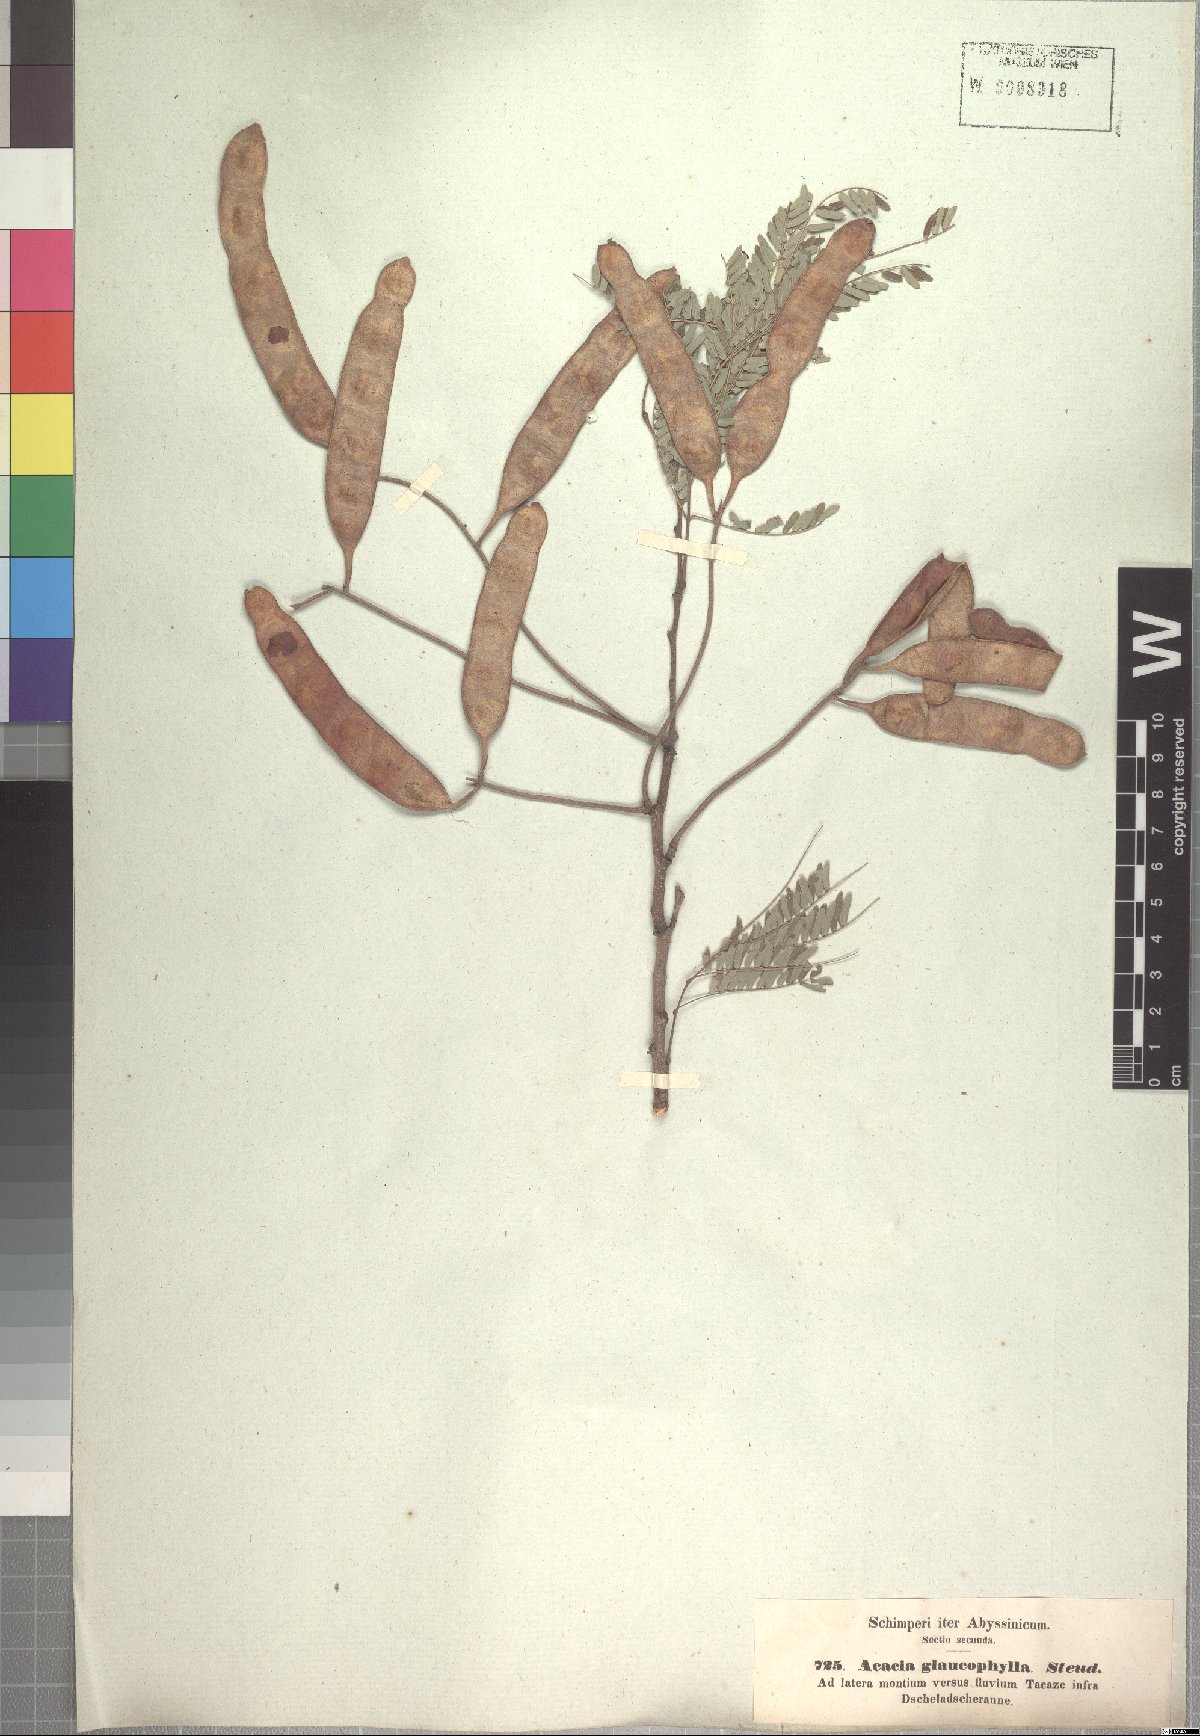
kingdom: Plantae
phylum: Tracheophyta
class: Magnoliopsida
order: Fabales
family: Fabaceae
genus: Senegalia
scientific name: Senegalia asak
